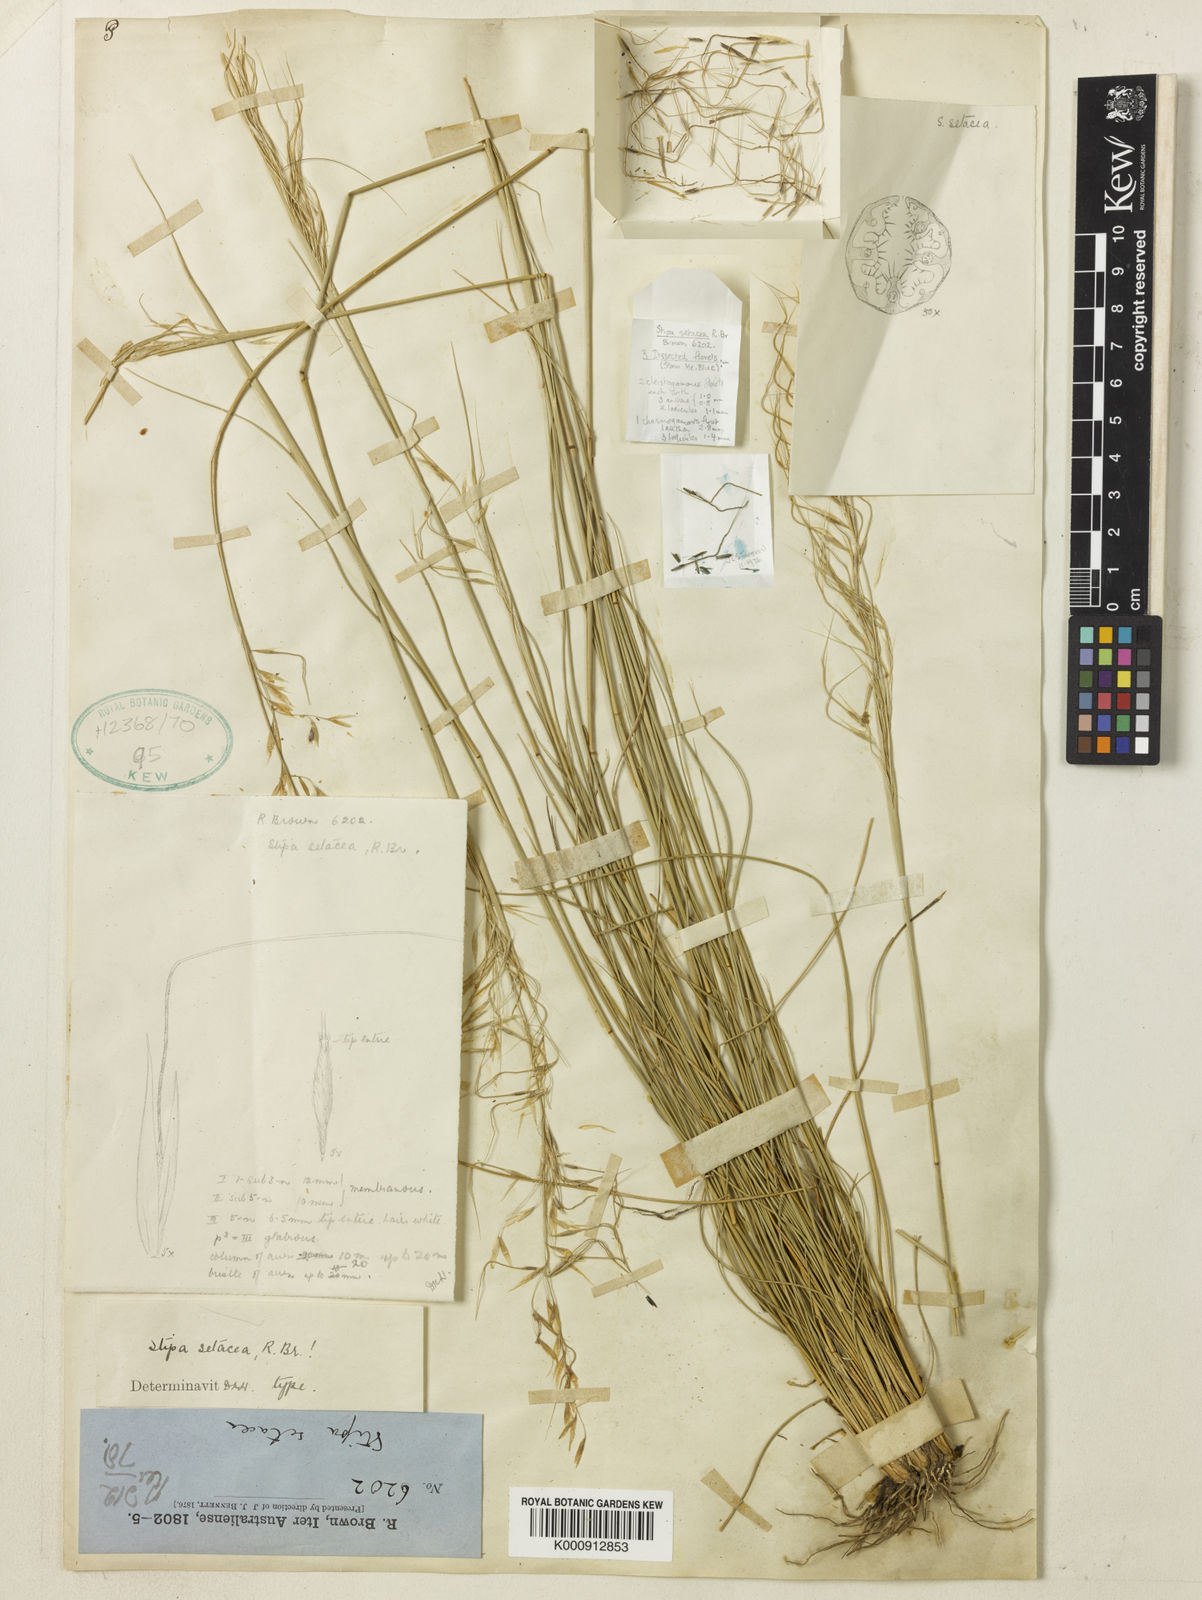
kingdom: Plantae
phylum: Tracheophyta
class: Liliopsida
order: Poales
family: Poaceae
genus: Piptochaetium
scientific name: Piptochaetium
